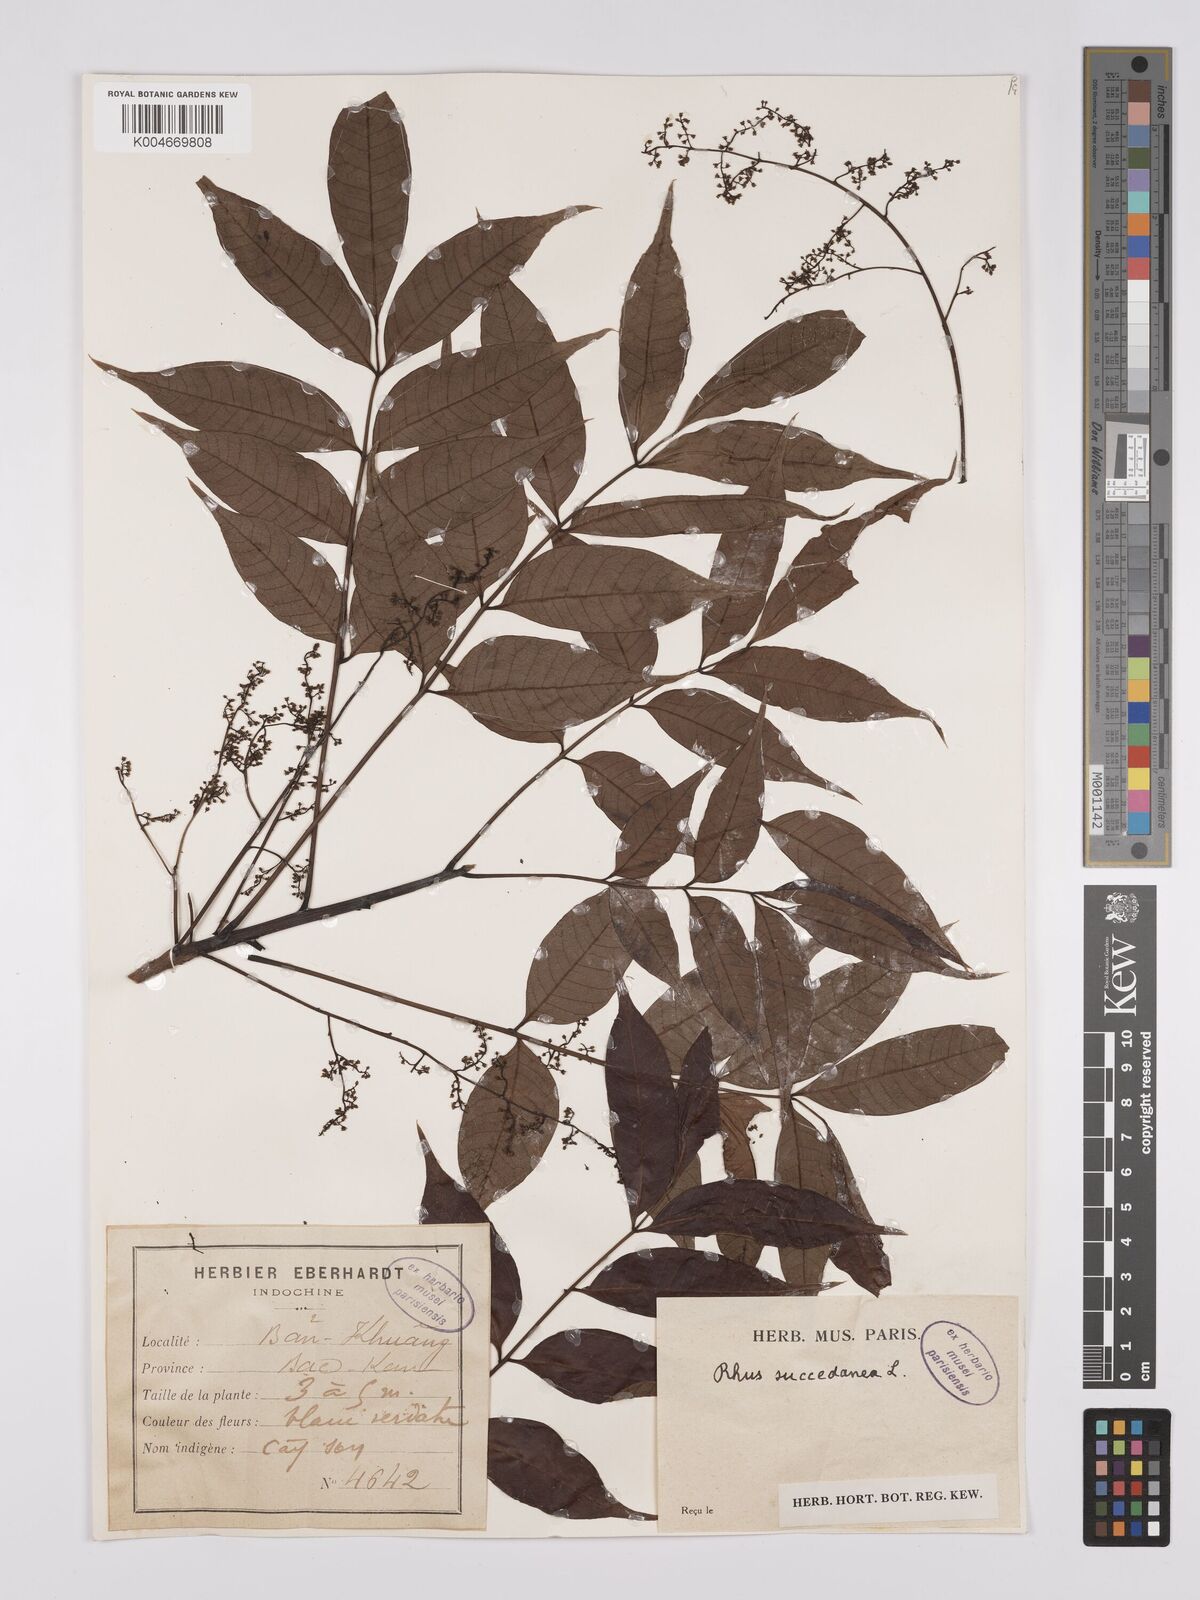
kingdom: Plantae
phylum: Tracheophyta
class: Magnoliopsida
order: Sapindales
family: Anacardiaceae
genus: Toxicodendron
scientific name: Toxicodendron succedaneum
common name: Wax tree
